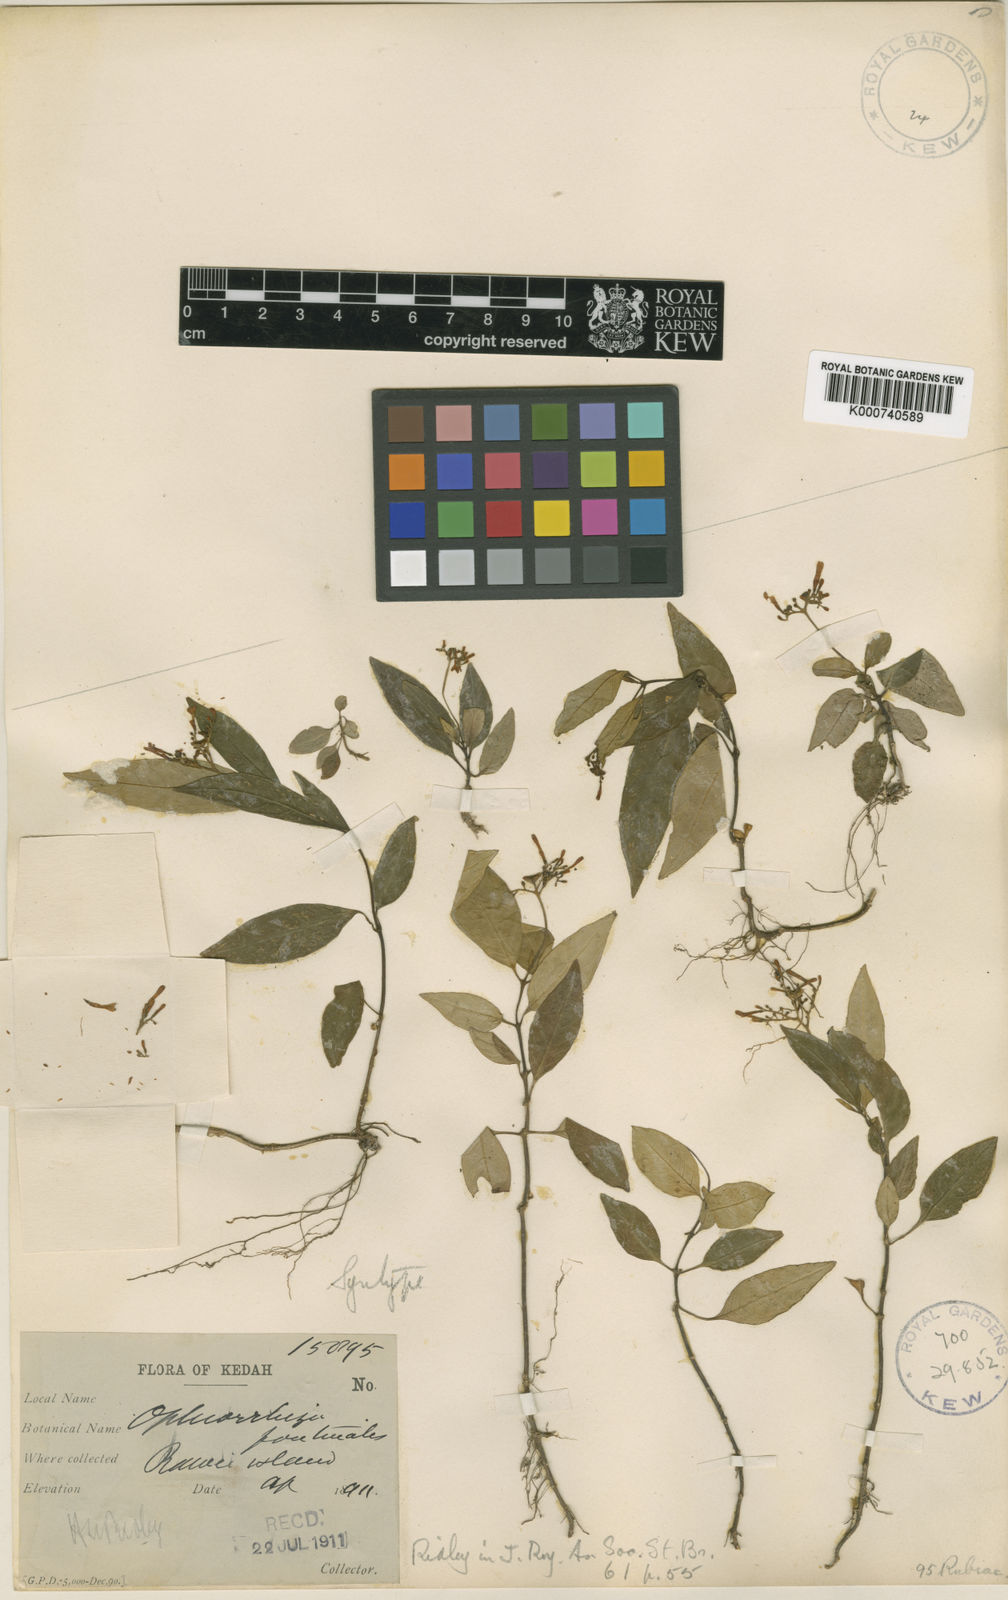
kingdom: Plantae
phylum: Tracheophyta
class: Magnoliopsida
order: Gentianales
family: Rubiaceae
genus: Ophiorrhiza
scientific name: Ophiorrhiza fontinalis
